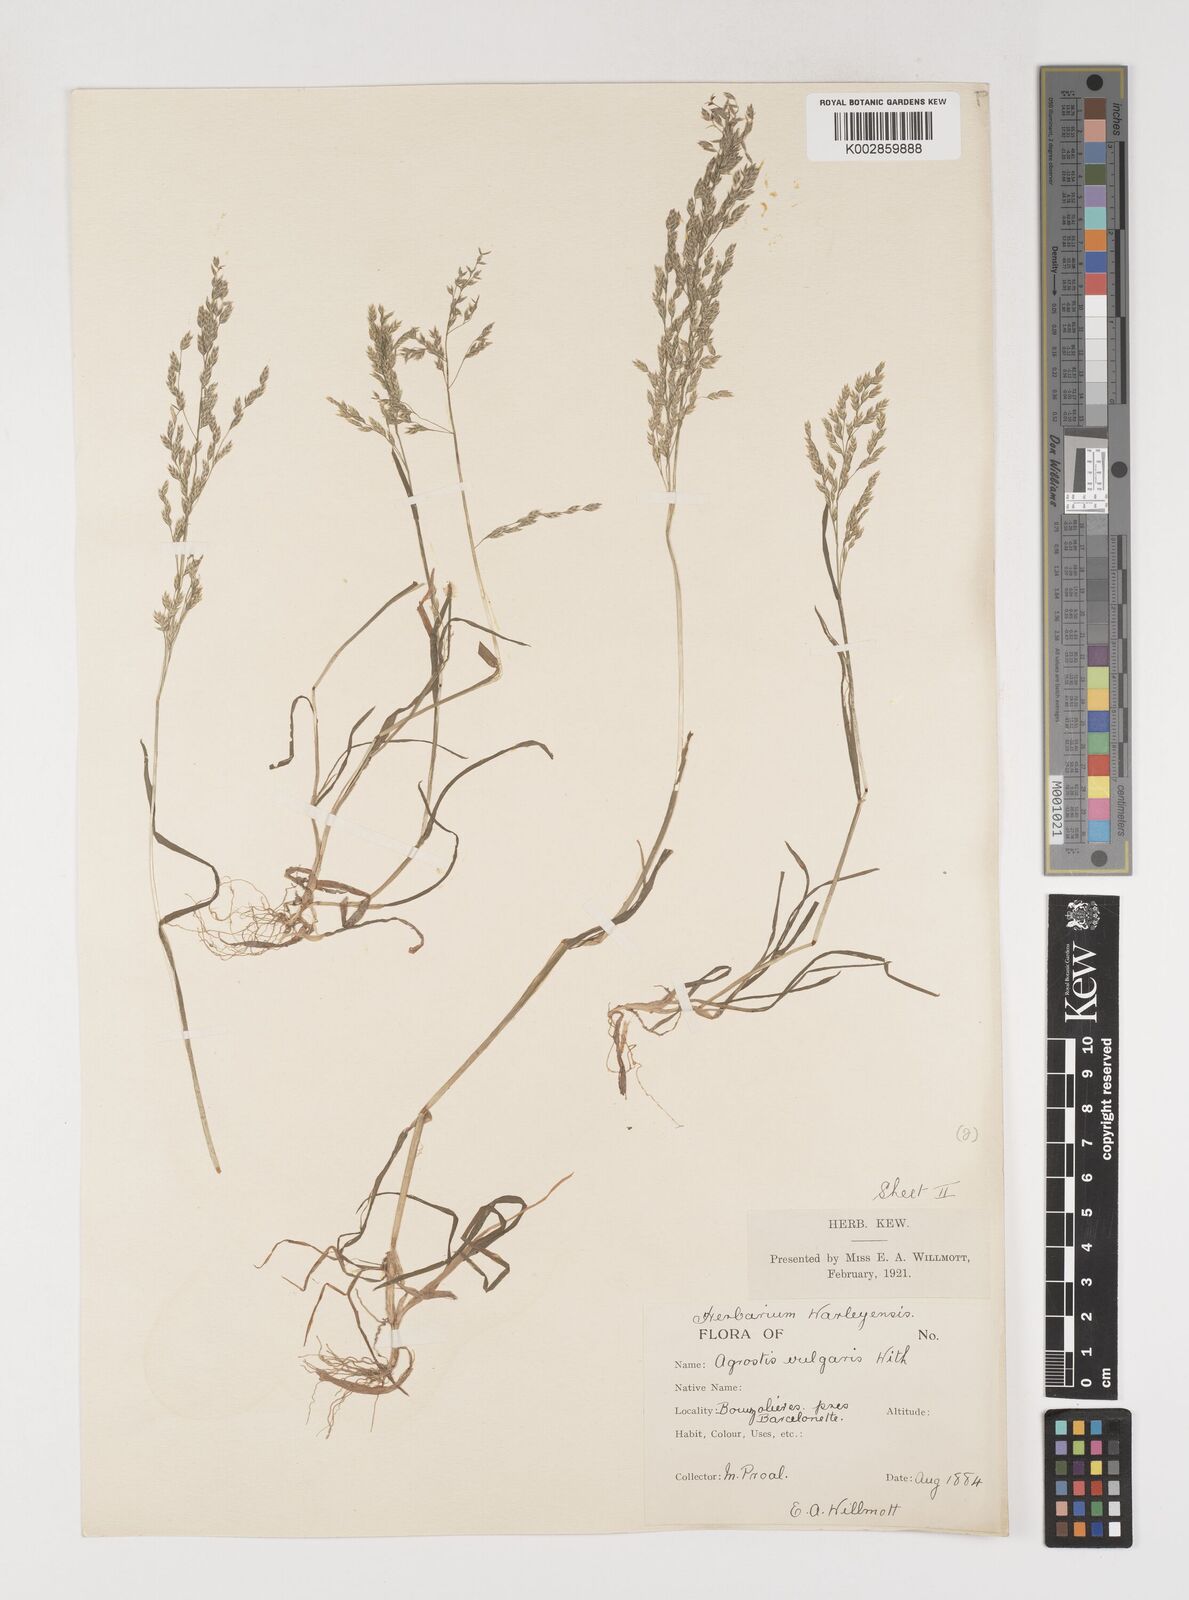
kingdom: Plantae
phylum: Tracheophyta
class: Liliopsida
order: Poales
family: Poaceae
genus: Poa
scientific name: Poa annua
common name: Annual bluegrass
